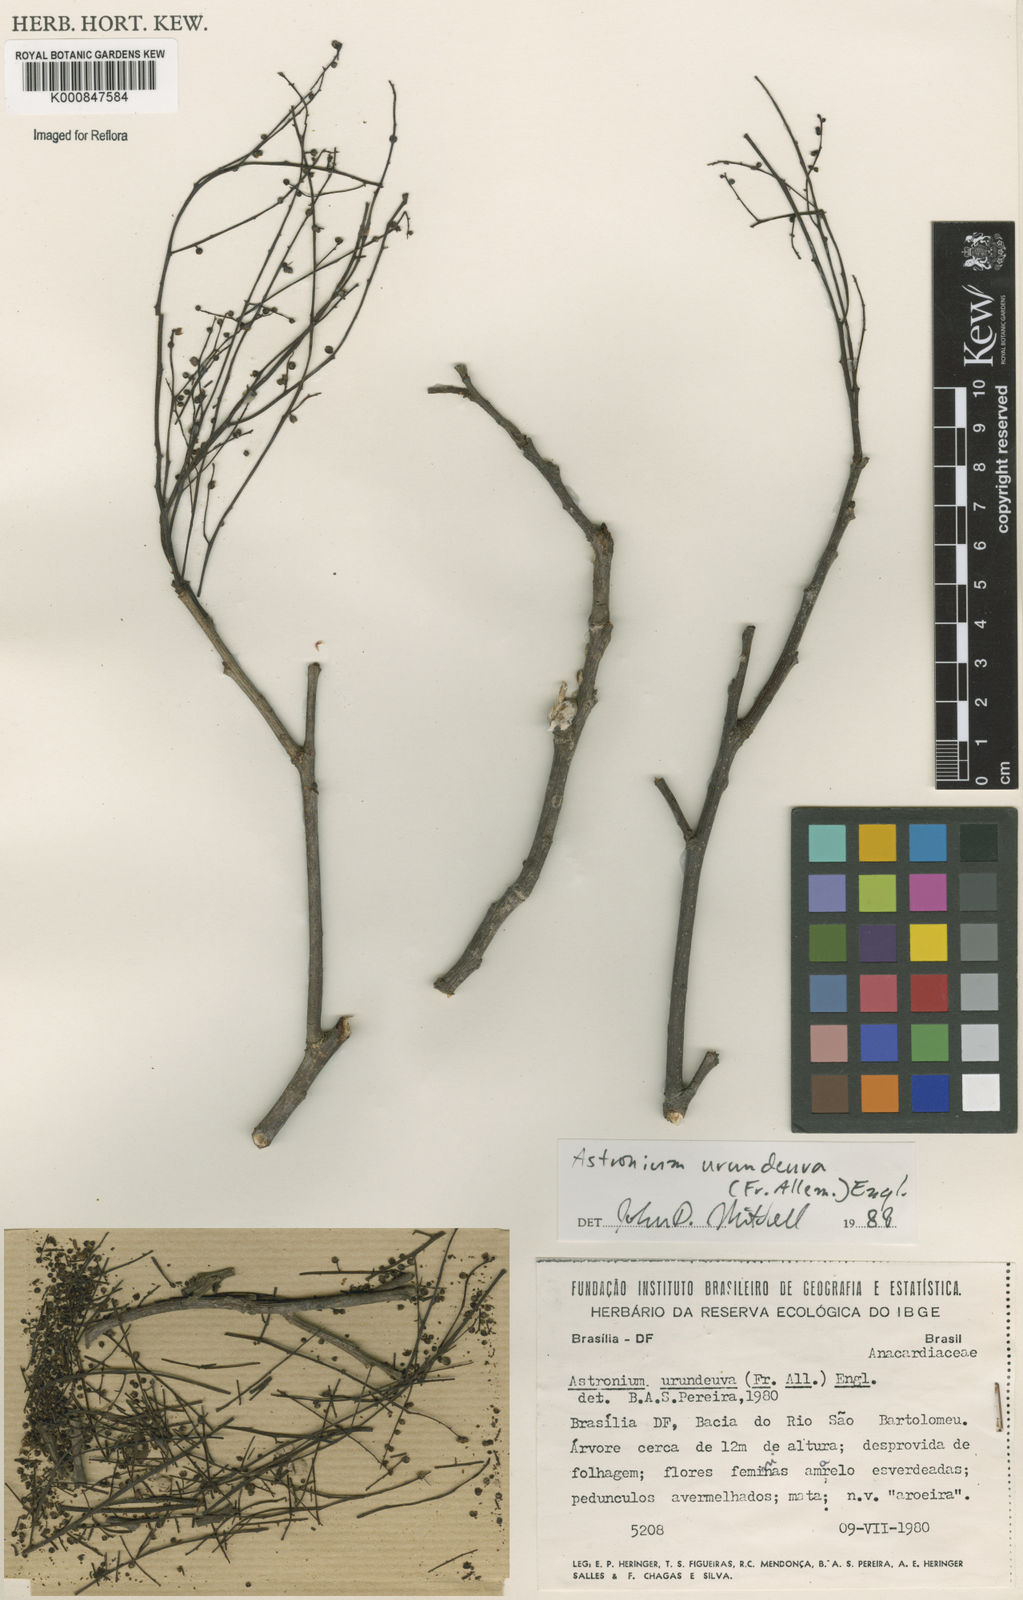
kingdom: Plantae
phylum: Tracheophyta
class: Magnoliopsida
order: Sapindales
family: Anacardiaceae
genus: Astronium
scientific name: Astronium
